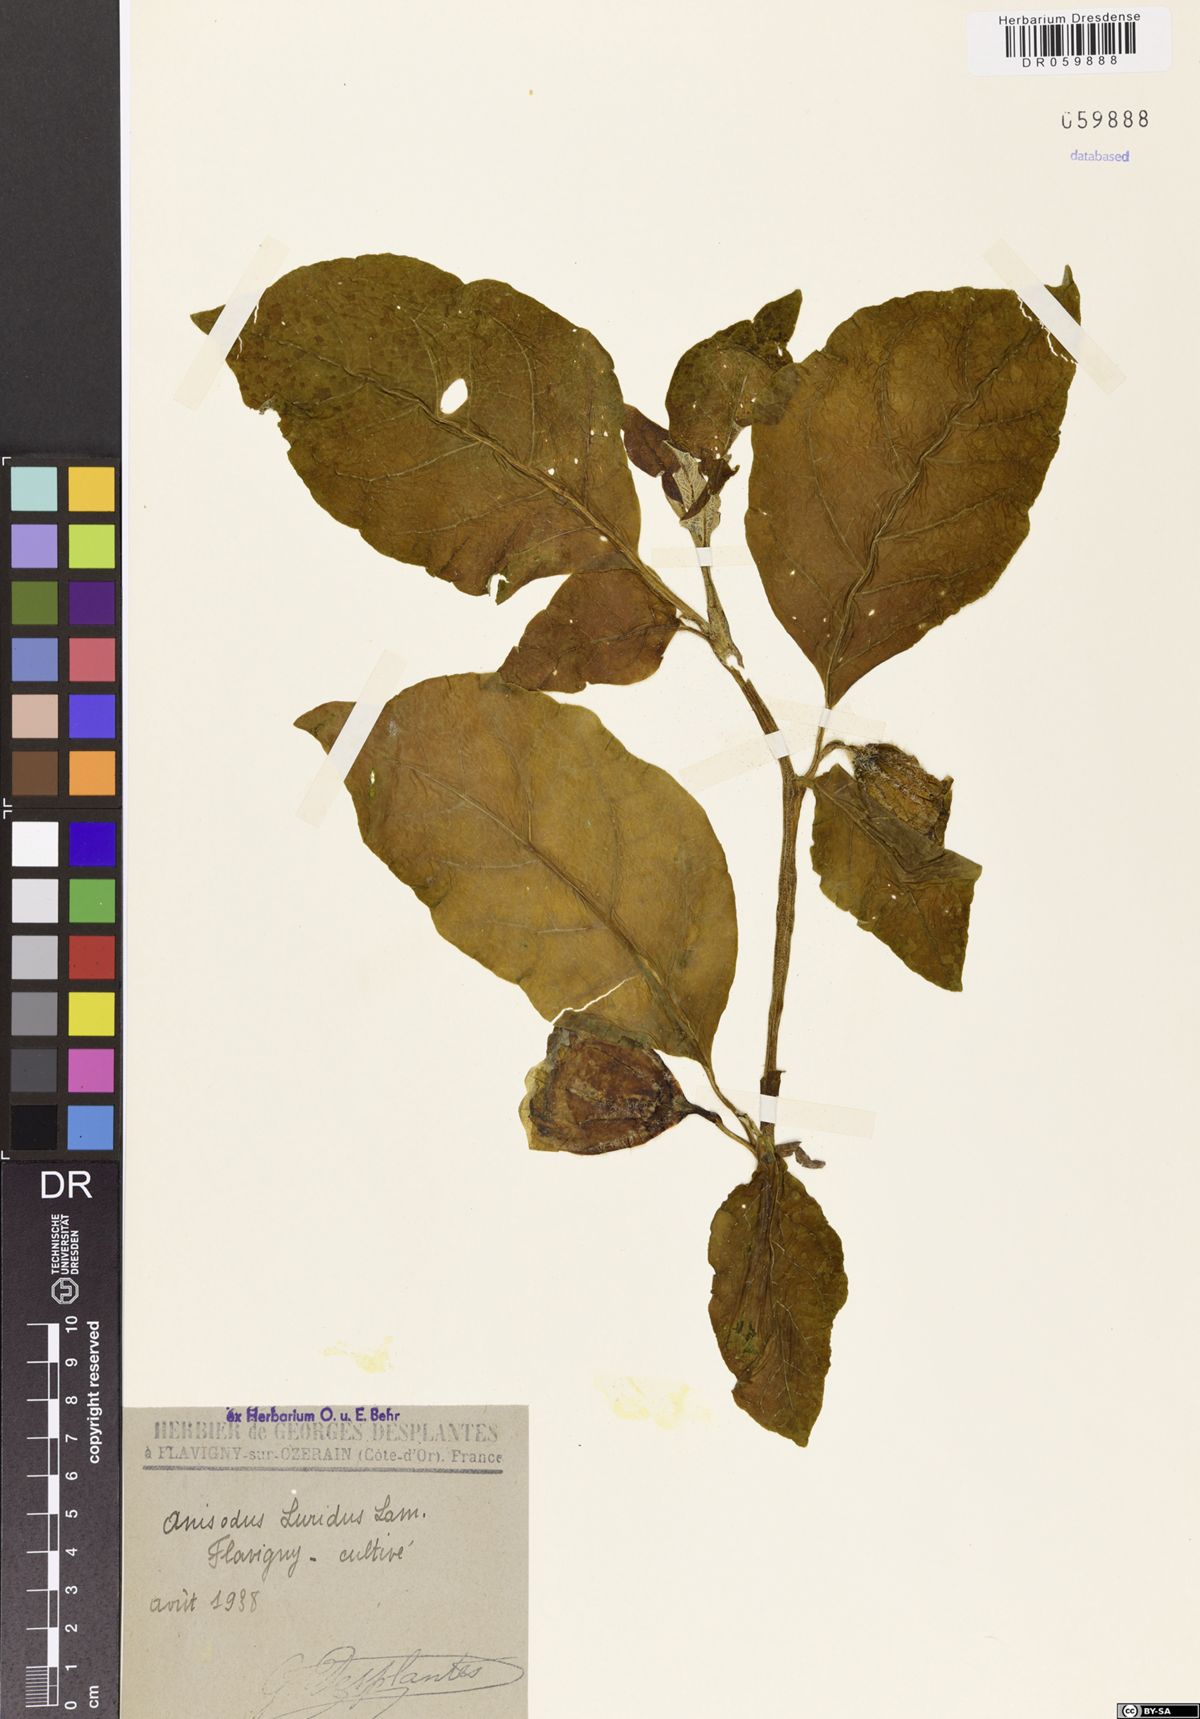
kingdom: Plantae
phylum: Tracheophyta
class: Magnoliopsida
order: Solanales
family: Solanaceae
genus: Anisodus
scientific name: Anisodus stramoniifolius
